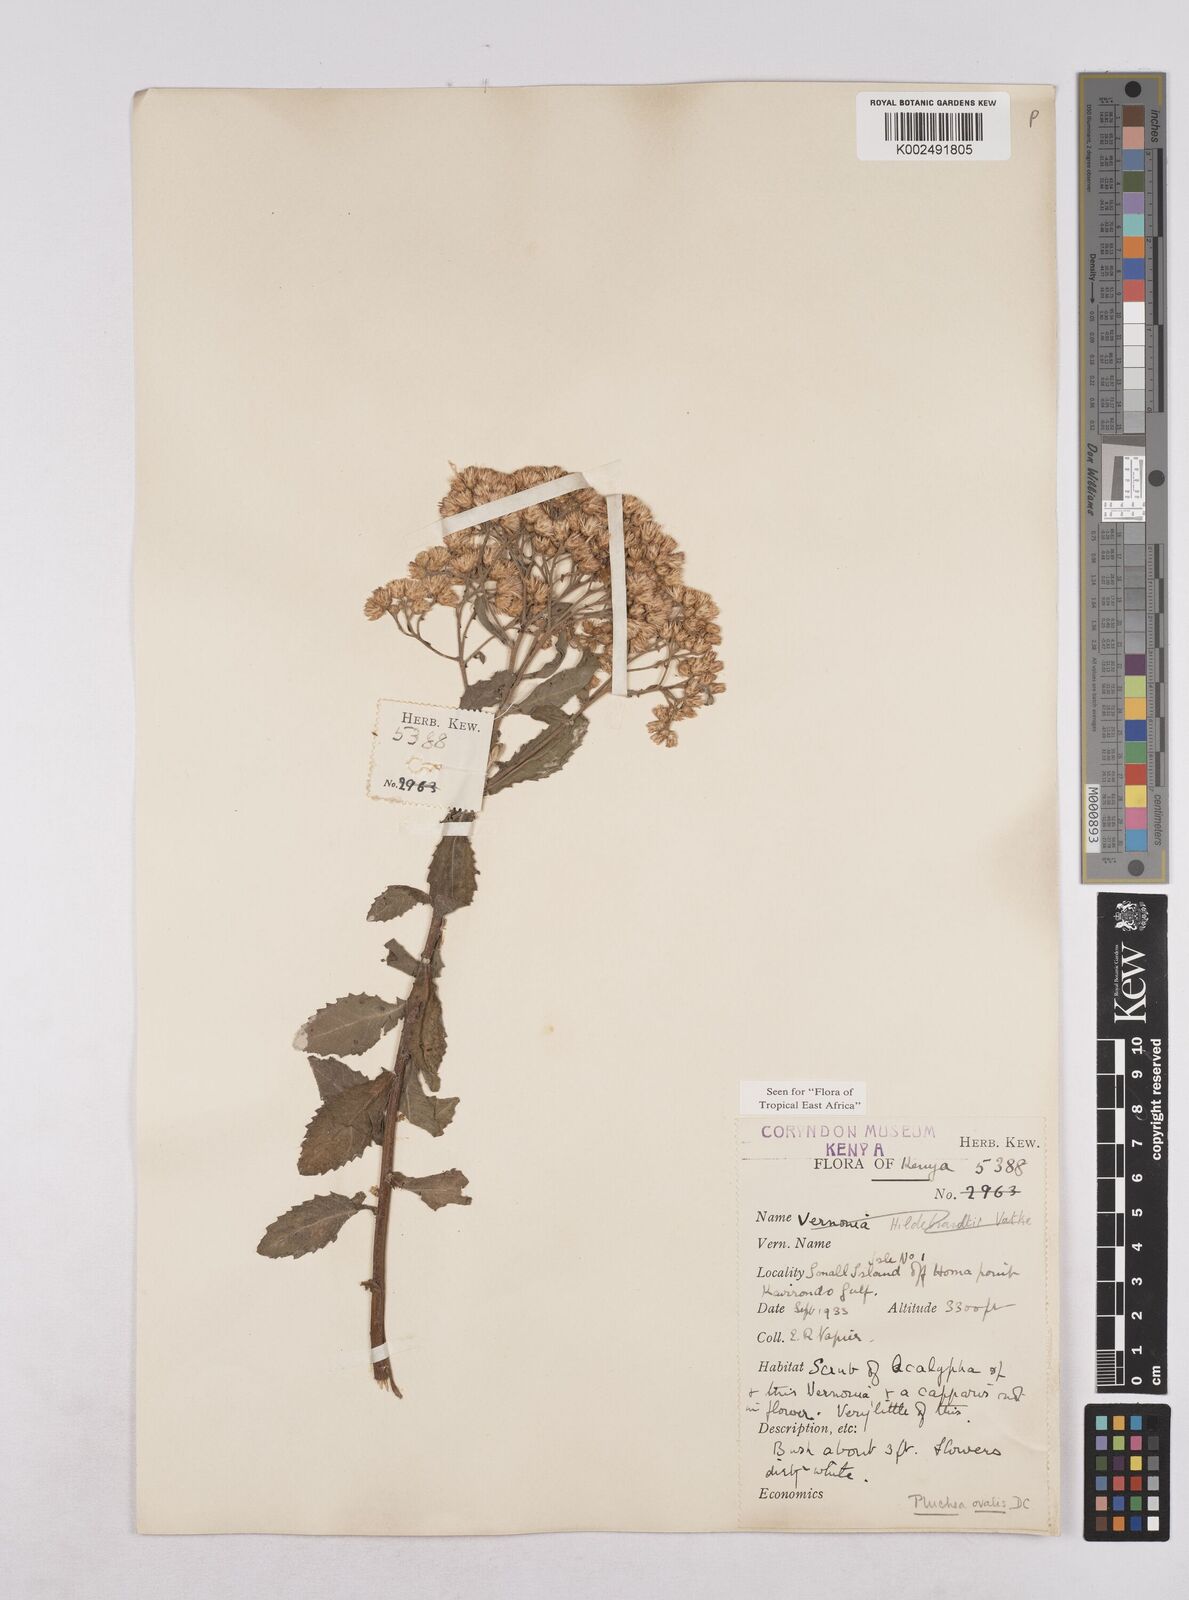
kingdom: Plantae
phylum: Tracheophyta
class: Magnoliopsida
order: Asterales
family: Asteraceae
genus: Pluchea
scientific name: Pluchea dioscoridis
